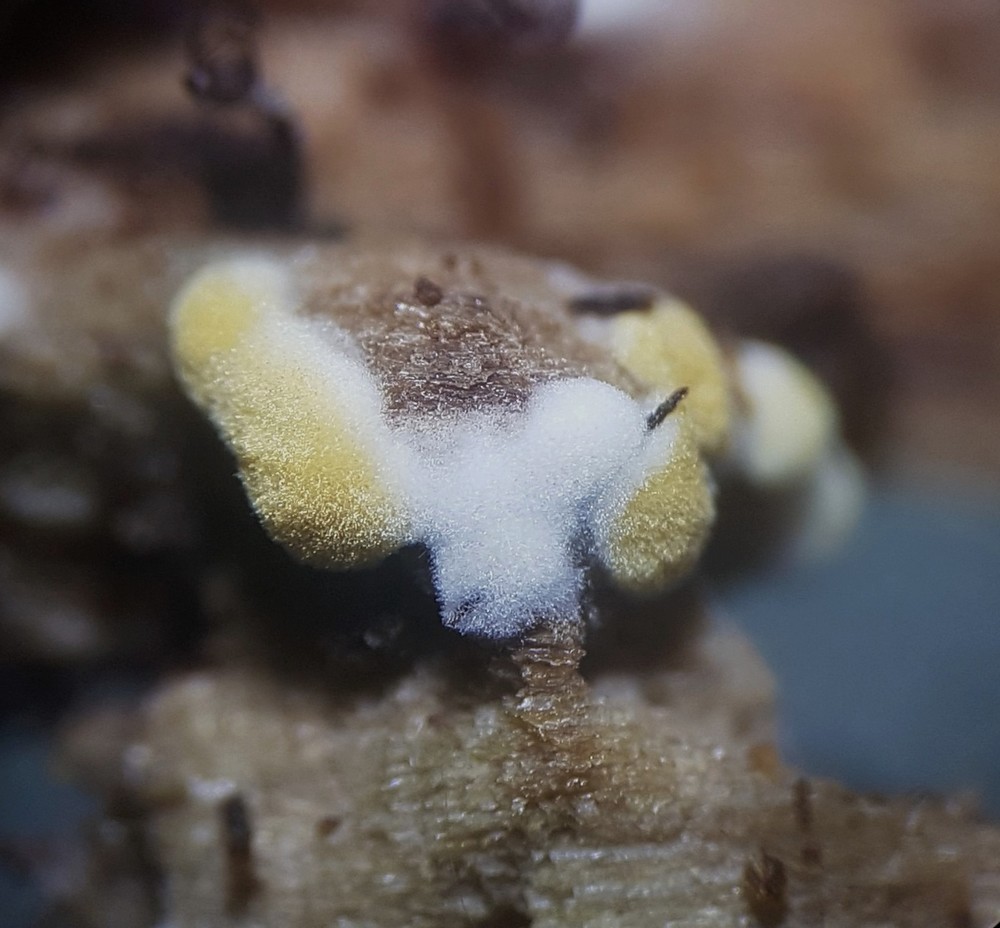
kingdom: Fungi
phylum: Basidiomycota
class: Agaricomycetes
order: Cantharellales
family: Botryobasidiaceae
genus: Botryobasidium
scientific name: Botryobasidium aureum
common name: gylden spindhinde
